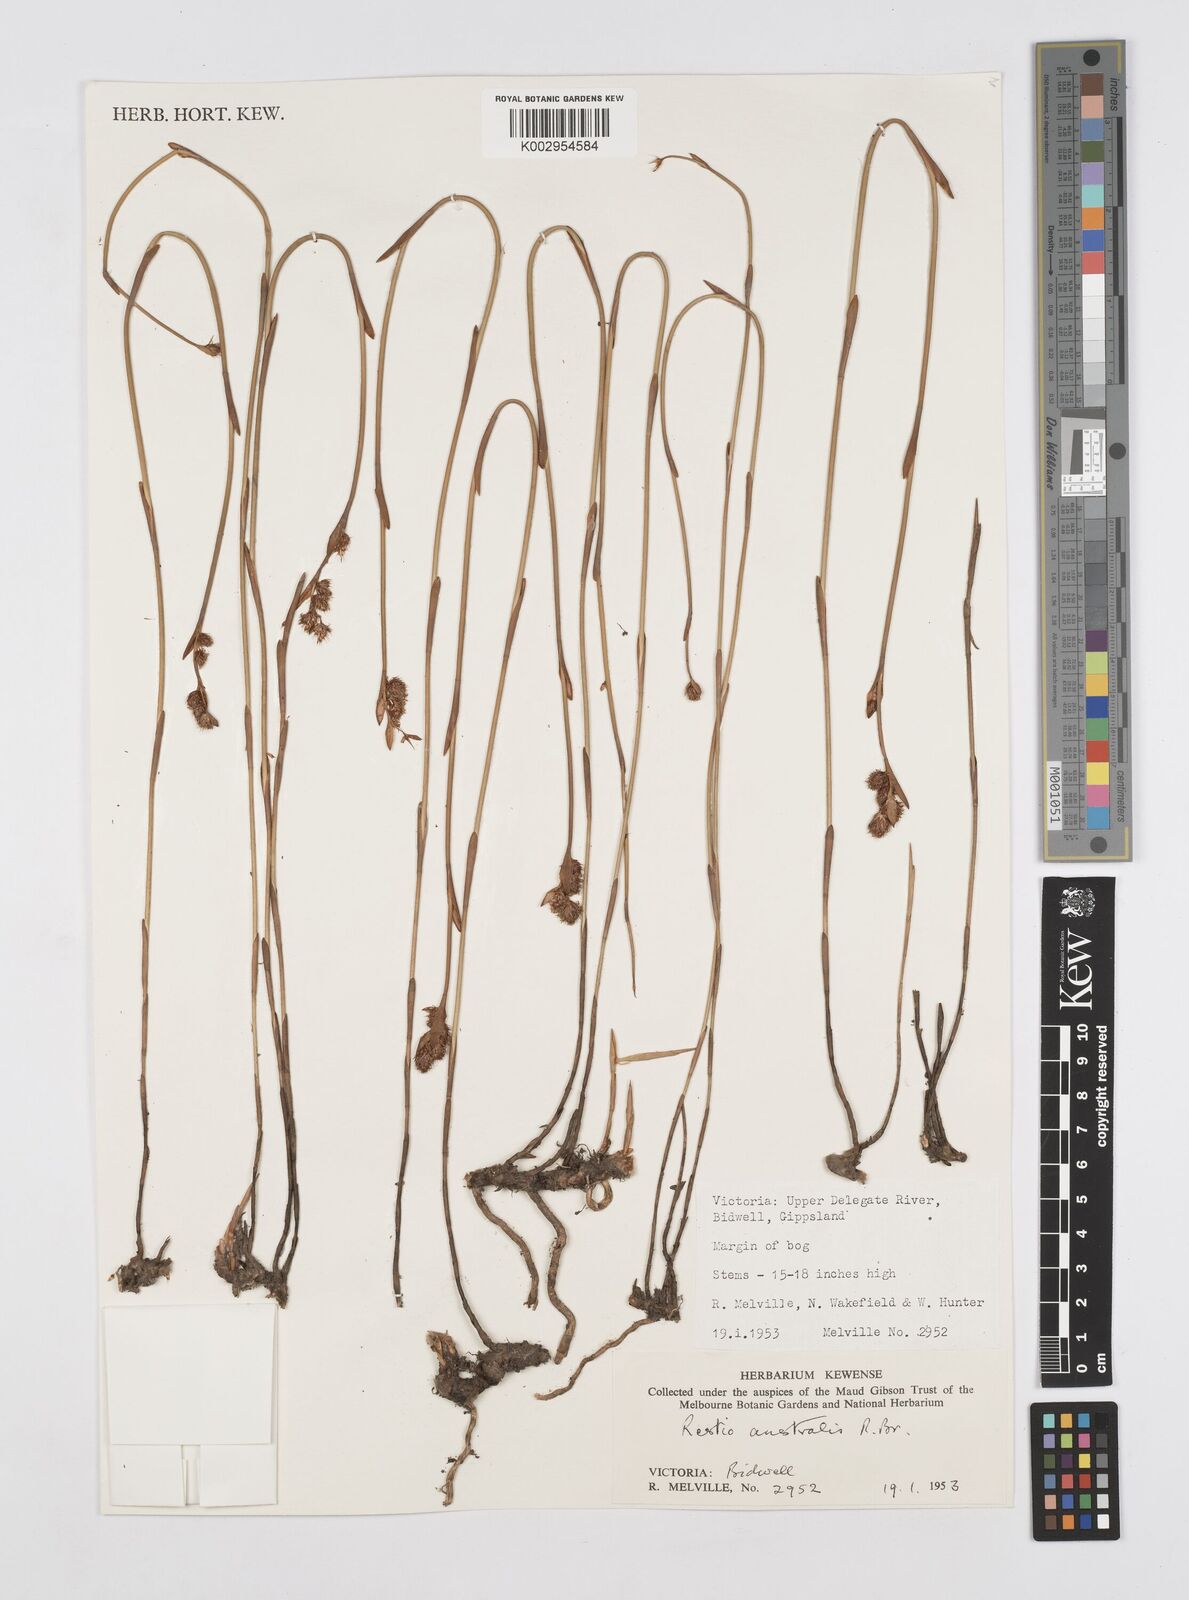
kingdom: Plantae
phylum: Tracheophyta
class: Liliopsida
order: Poales
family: Restionaceae
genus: Baloskion
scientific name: Baloskion australe
